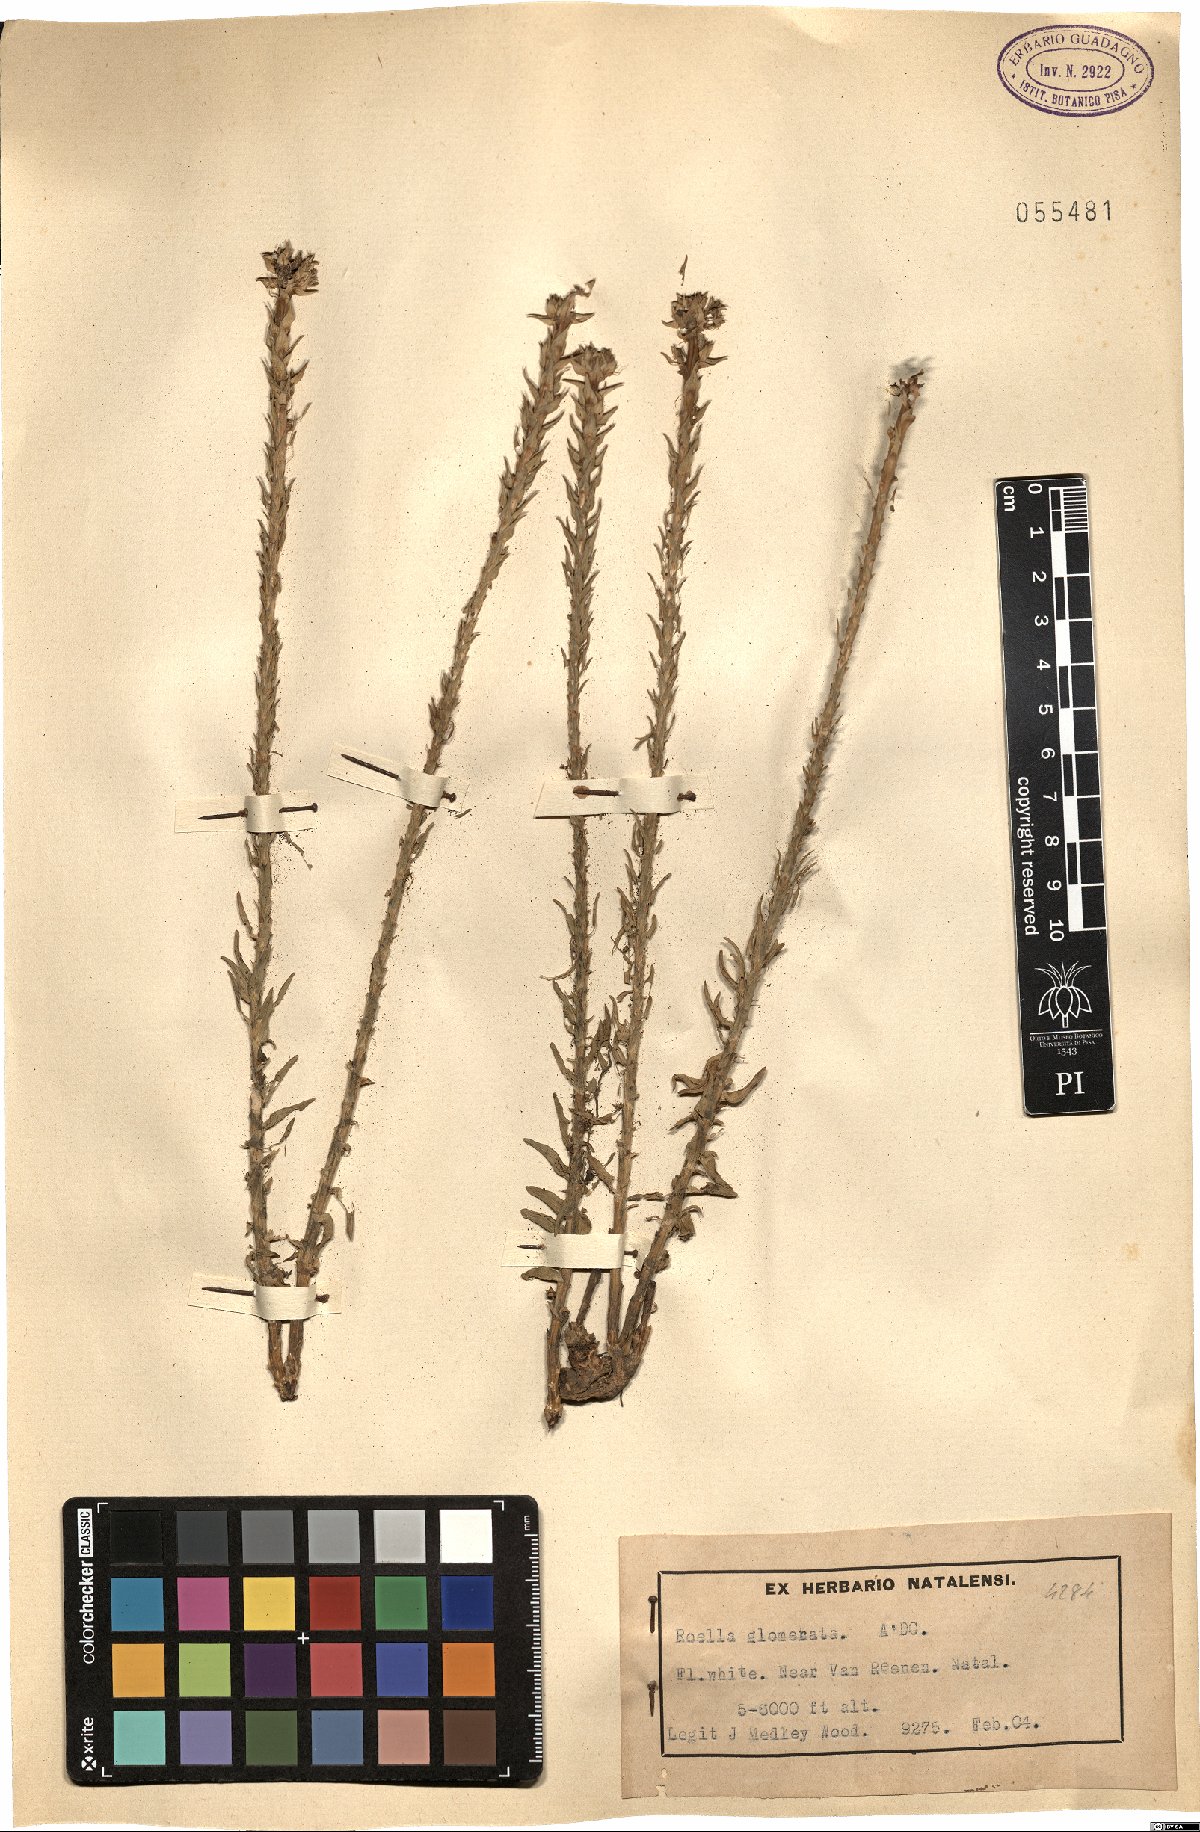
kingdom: Plantae
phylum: Tracheophyta
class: Magnoliopsida
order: Asterales
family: Campanulaceae
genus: Roella
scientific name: Roella glomerata
